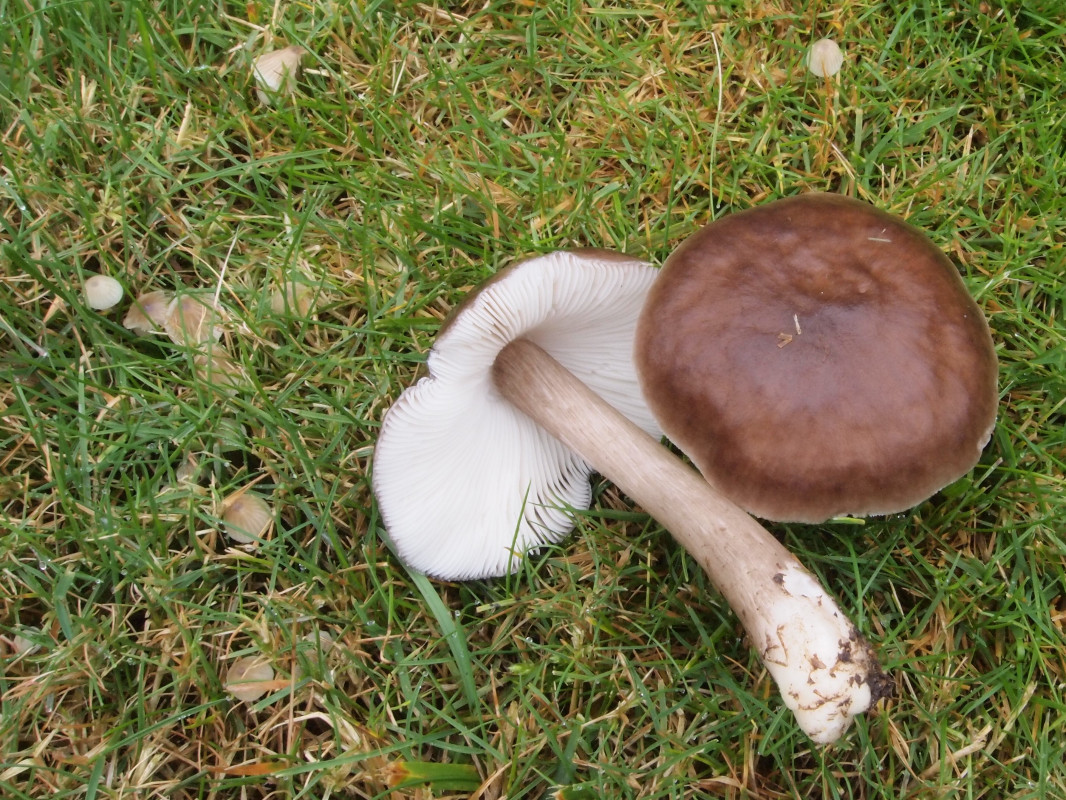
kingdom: Fungi
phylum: Basidiomycota
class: Agaricomycetes
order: Agaricales
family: Pluteaceae
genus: Pluteus
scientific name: Pluteus cervinus
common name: sodfarvet skærmhat
